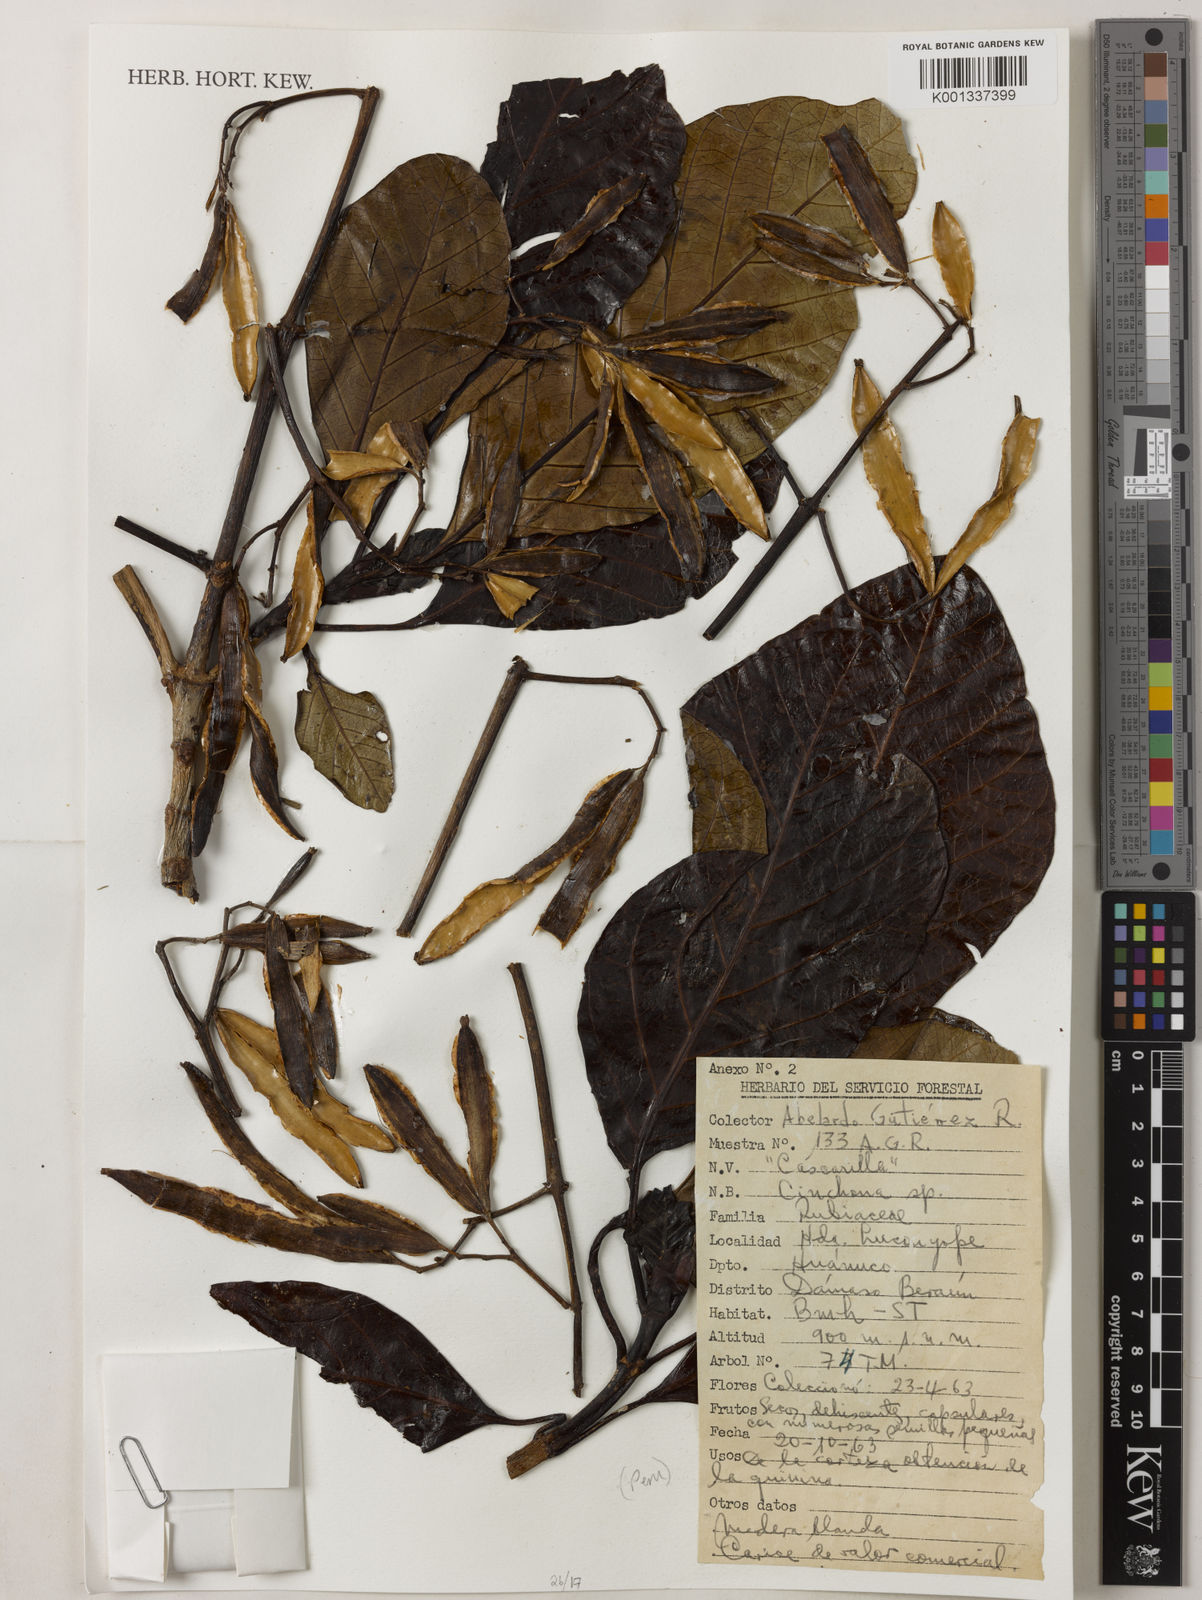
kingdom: Plantae
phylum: Tracheophyta
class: Magnoliopsida
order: Gentianales
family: Rubiaceae
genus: Cinchona
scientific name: Cinchona
